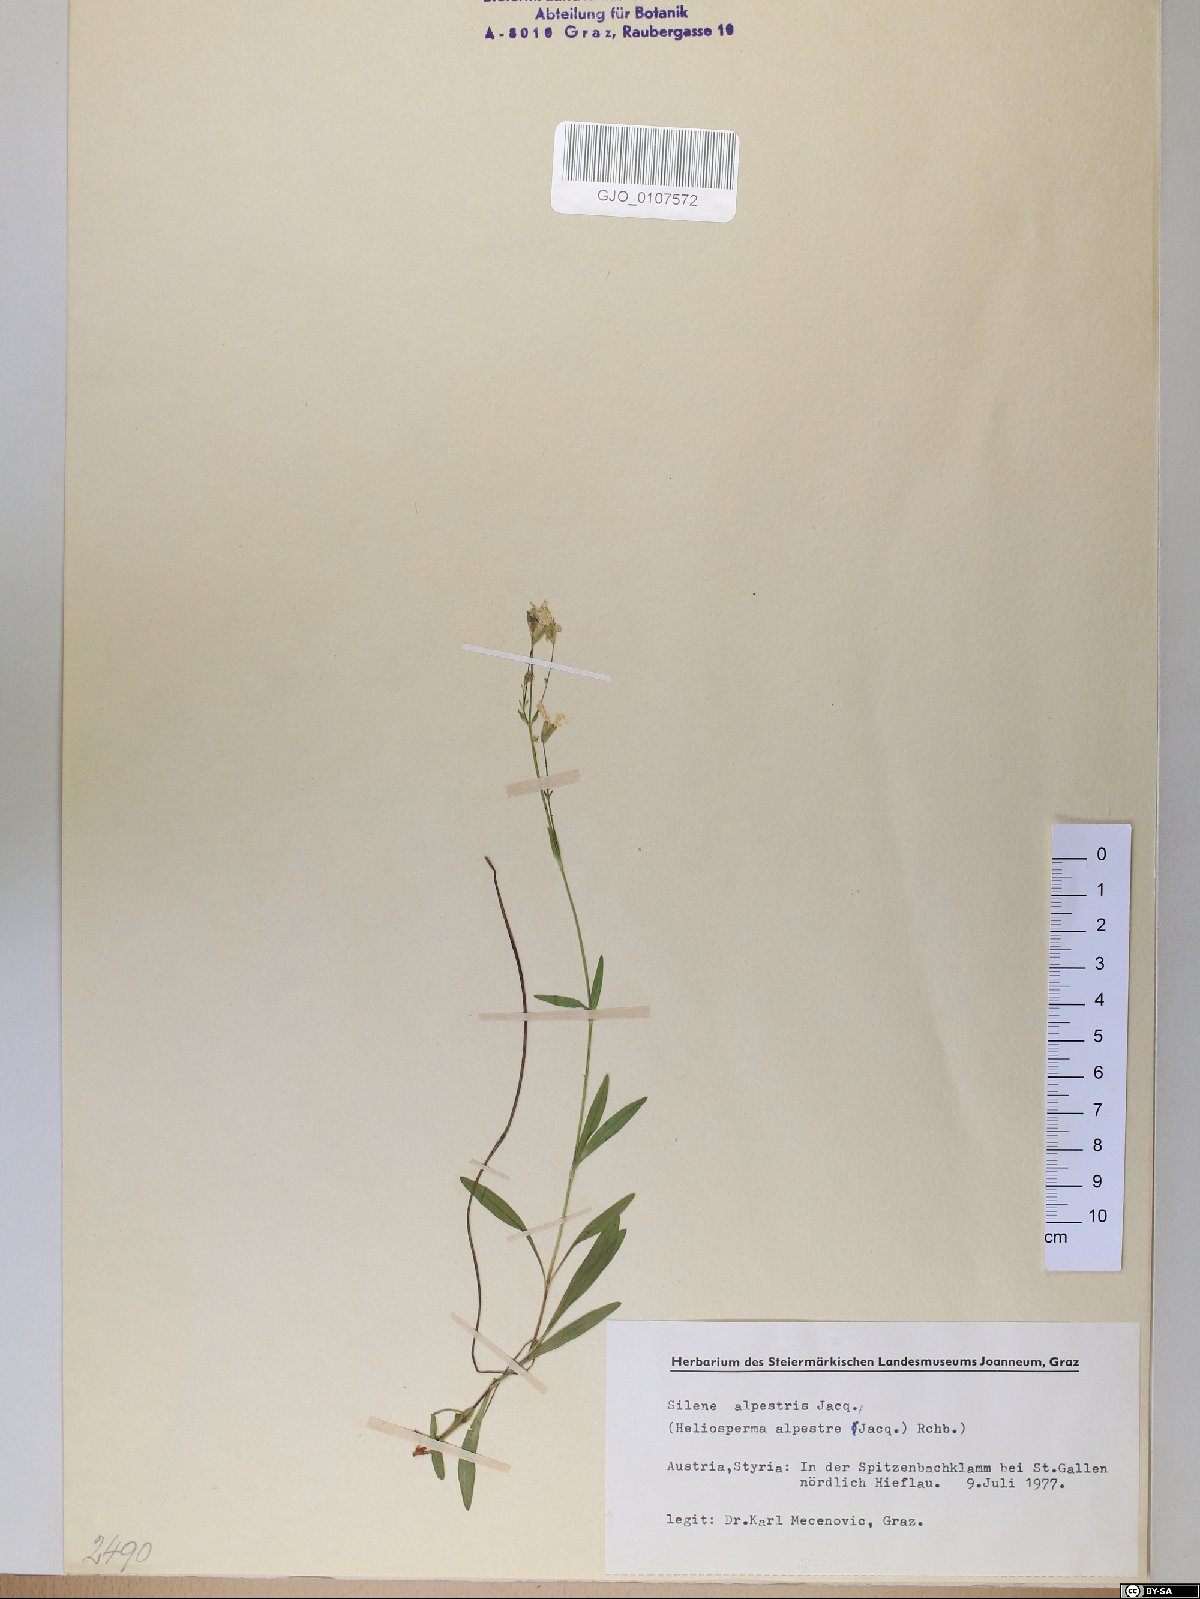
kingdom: Plantae
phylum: Tracheophyta
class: Magnoliopsida
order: Caryophyllales
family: Caryophyllaceae
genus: Heliosperma
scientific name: Heliosperma alpestre
